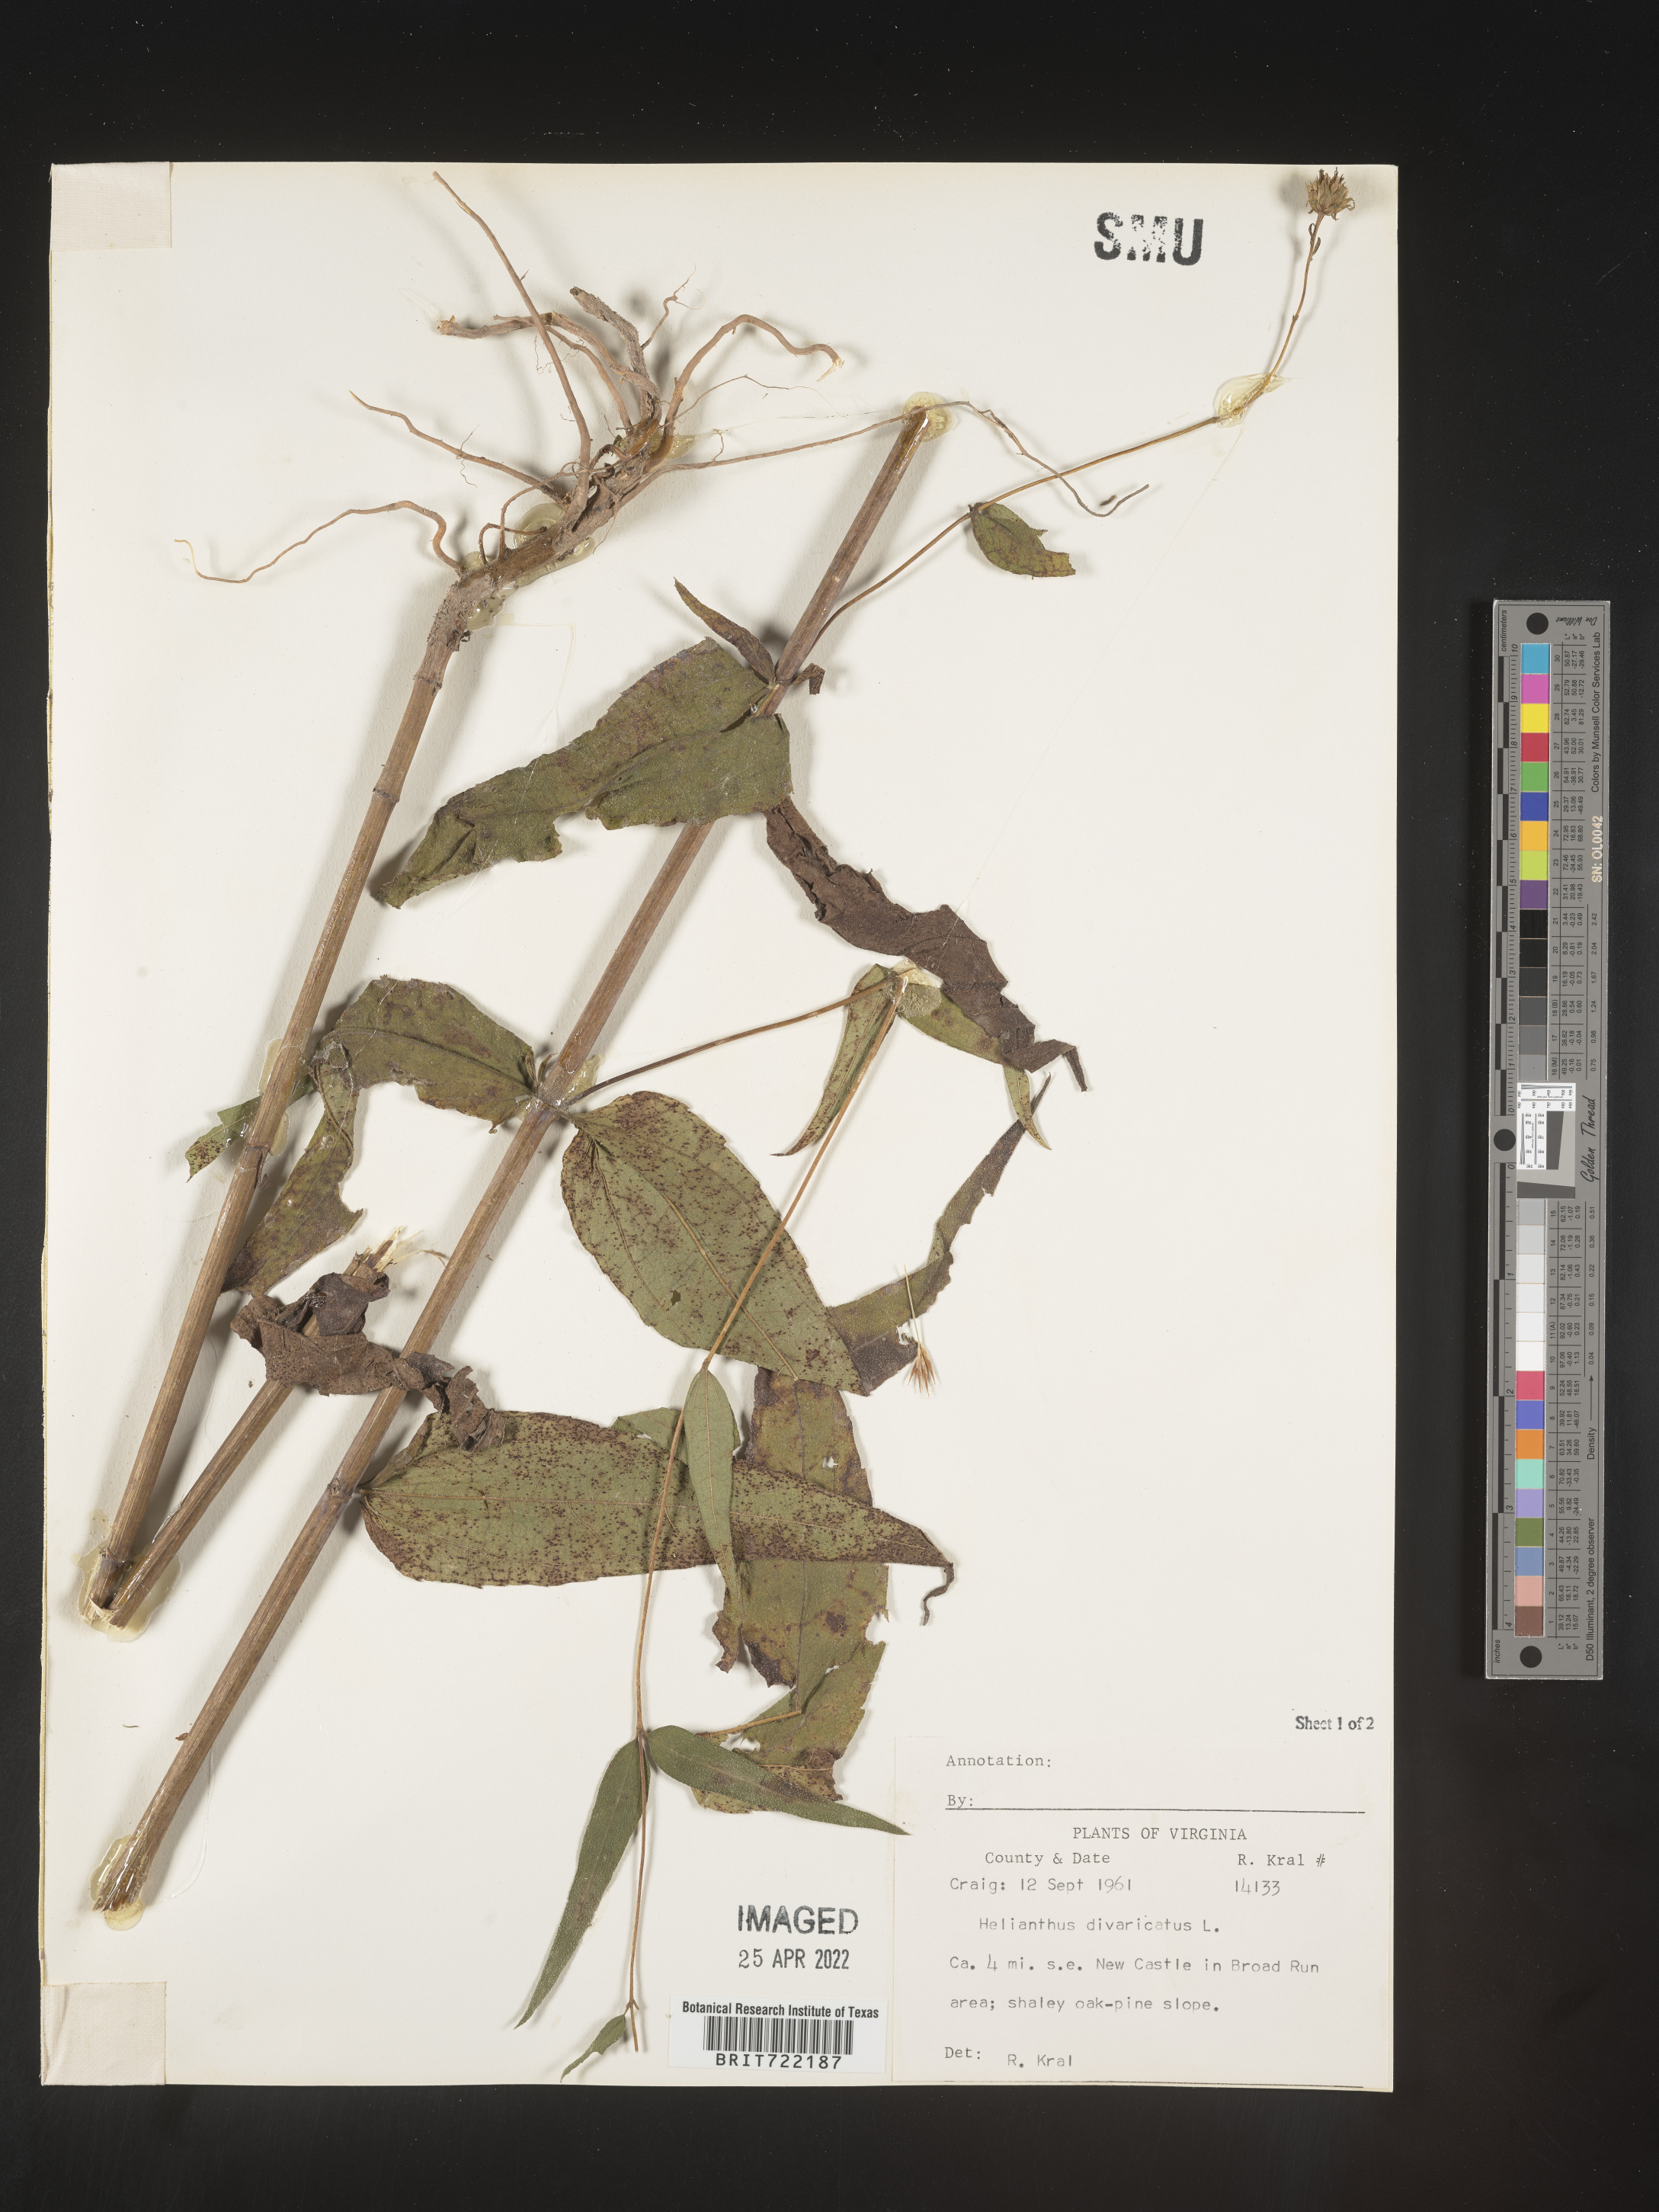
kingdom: Plantae
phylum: Tracheophyta
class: Magnoliopsida
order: Asterales
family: Asteraceae
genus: Helianthus
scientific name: Helianthus divaricatus
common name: Divergent sunflower
